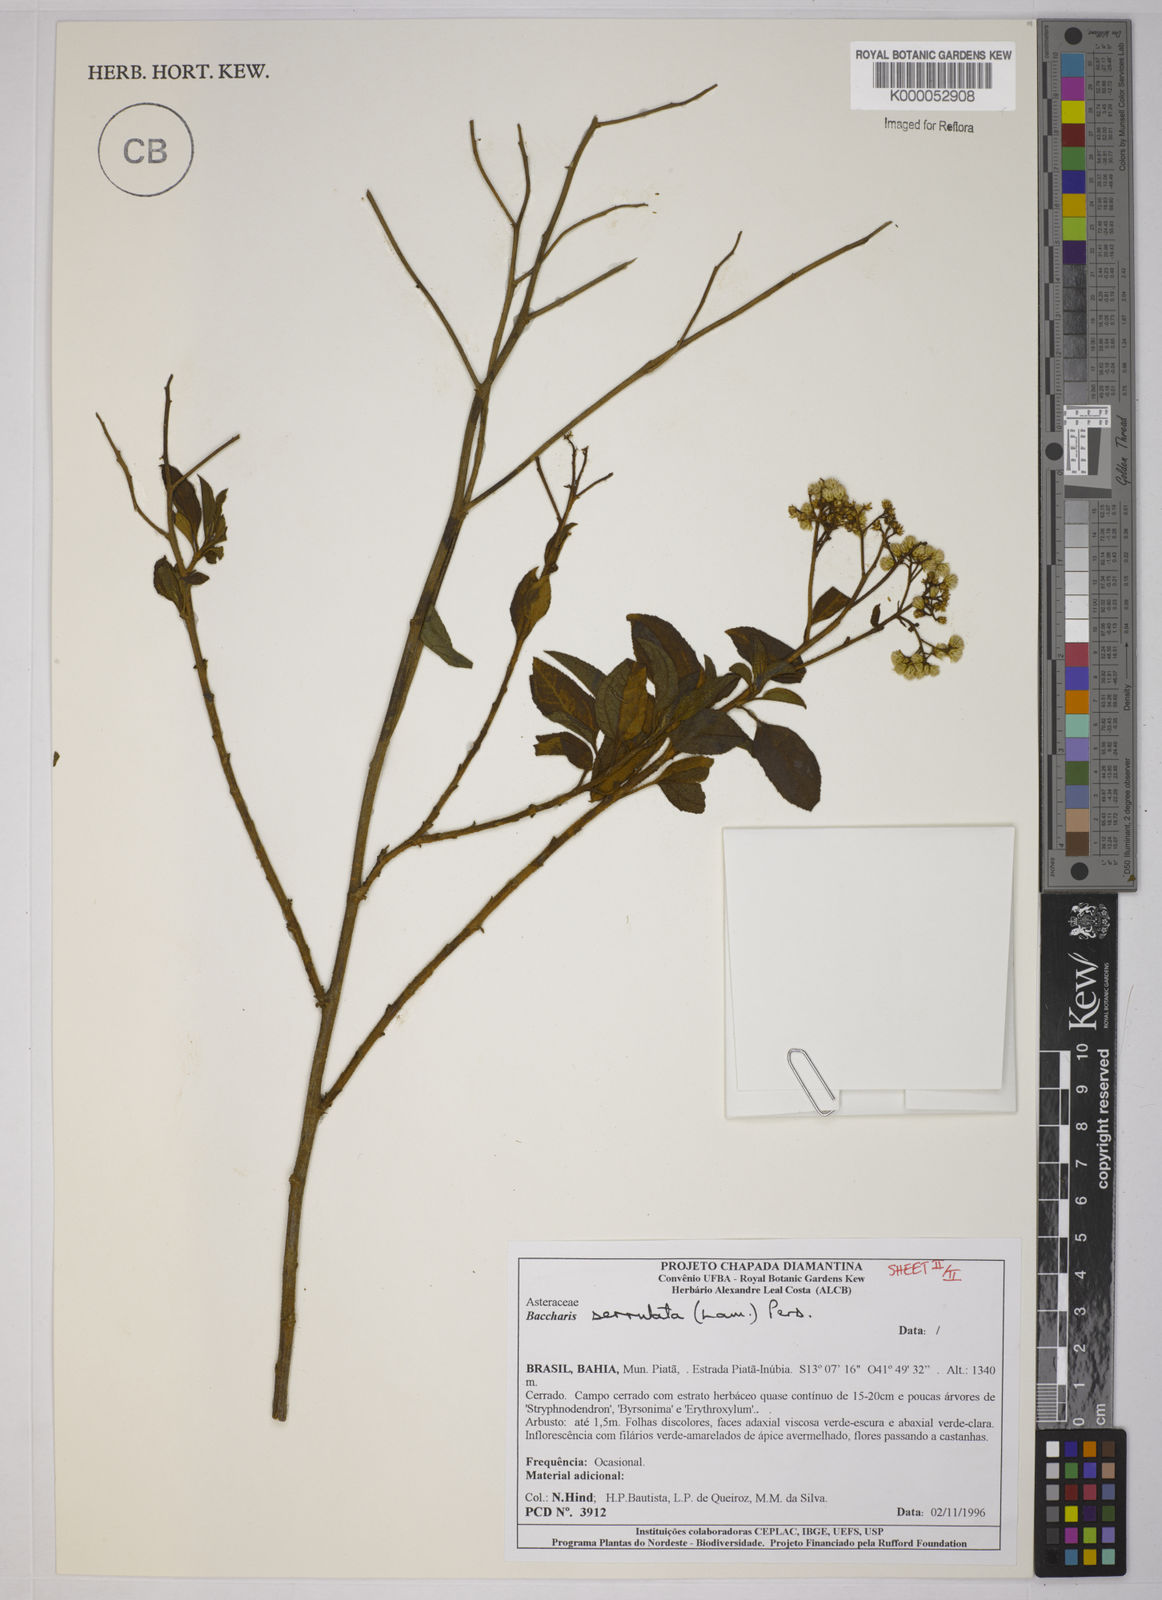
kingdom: Plantae
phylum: Tracheophyta
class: Magnoliopsida
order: Asterales
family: Asteraceae
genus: Baccharis
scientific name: Baccharis serrulata
